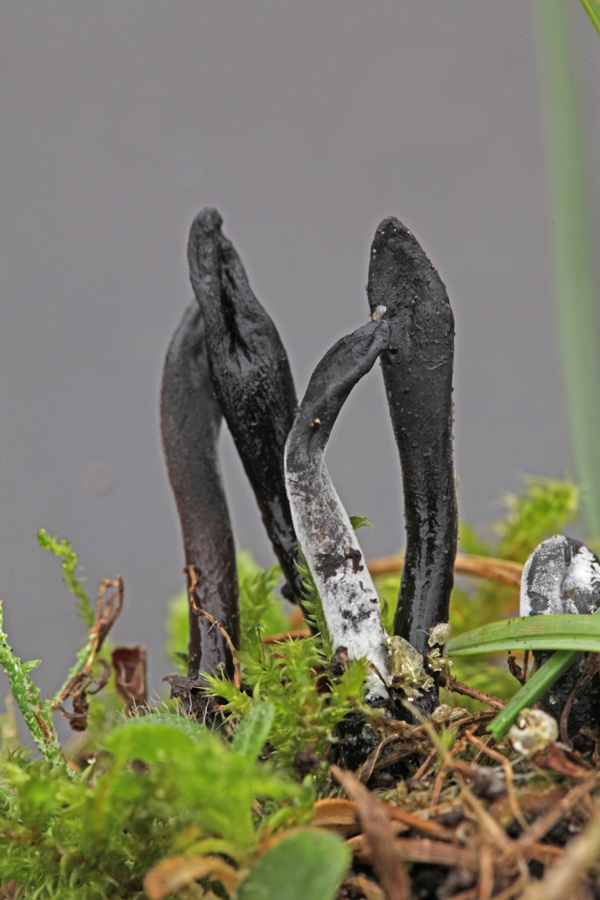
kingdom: Fungi
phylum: Ascomycota
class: Geoglossomycetes
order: Geoglossales
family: Geoglossaceae
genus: Glutinoglossum
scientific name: Glutinoglossum glutinosum
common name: slimet jordtunge
